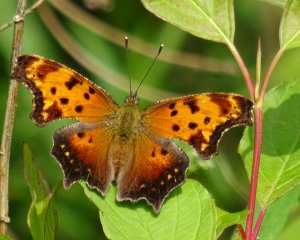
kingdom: Animalia
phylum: Arthropoda
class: Insecta
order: Lepidoptera
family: Nymphalidae
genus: Polygonia
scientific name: Polygonia progne
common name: Gray Comma
